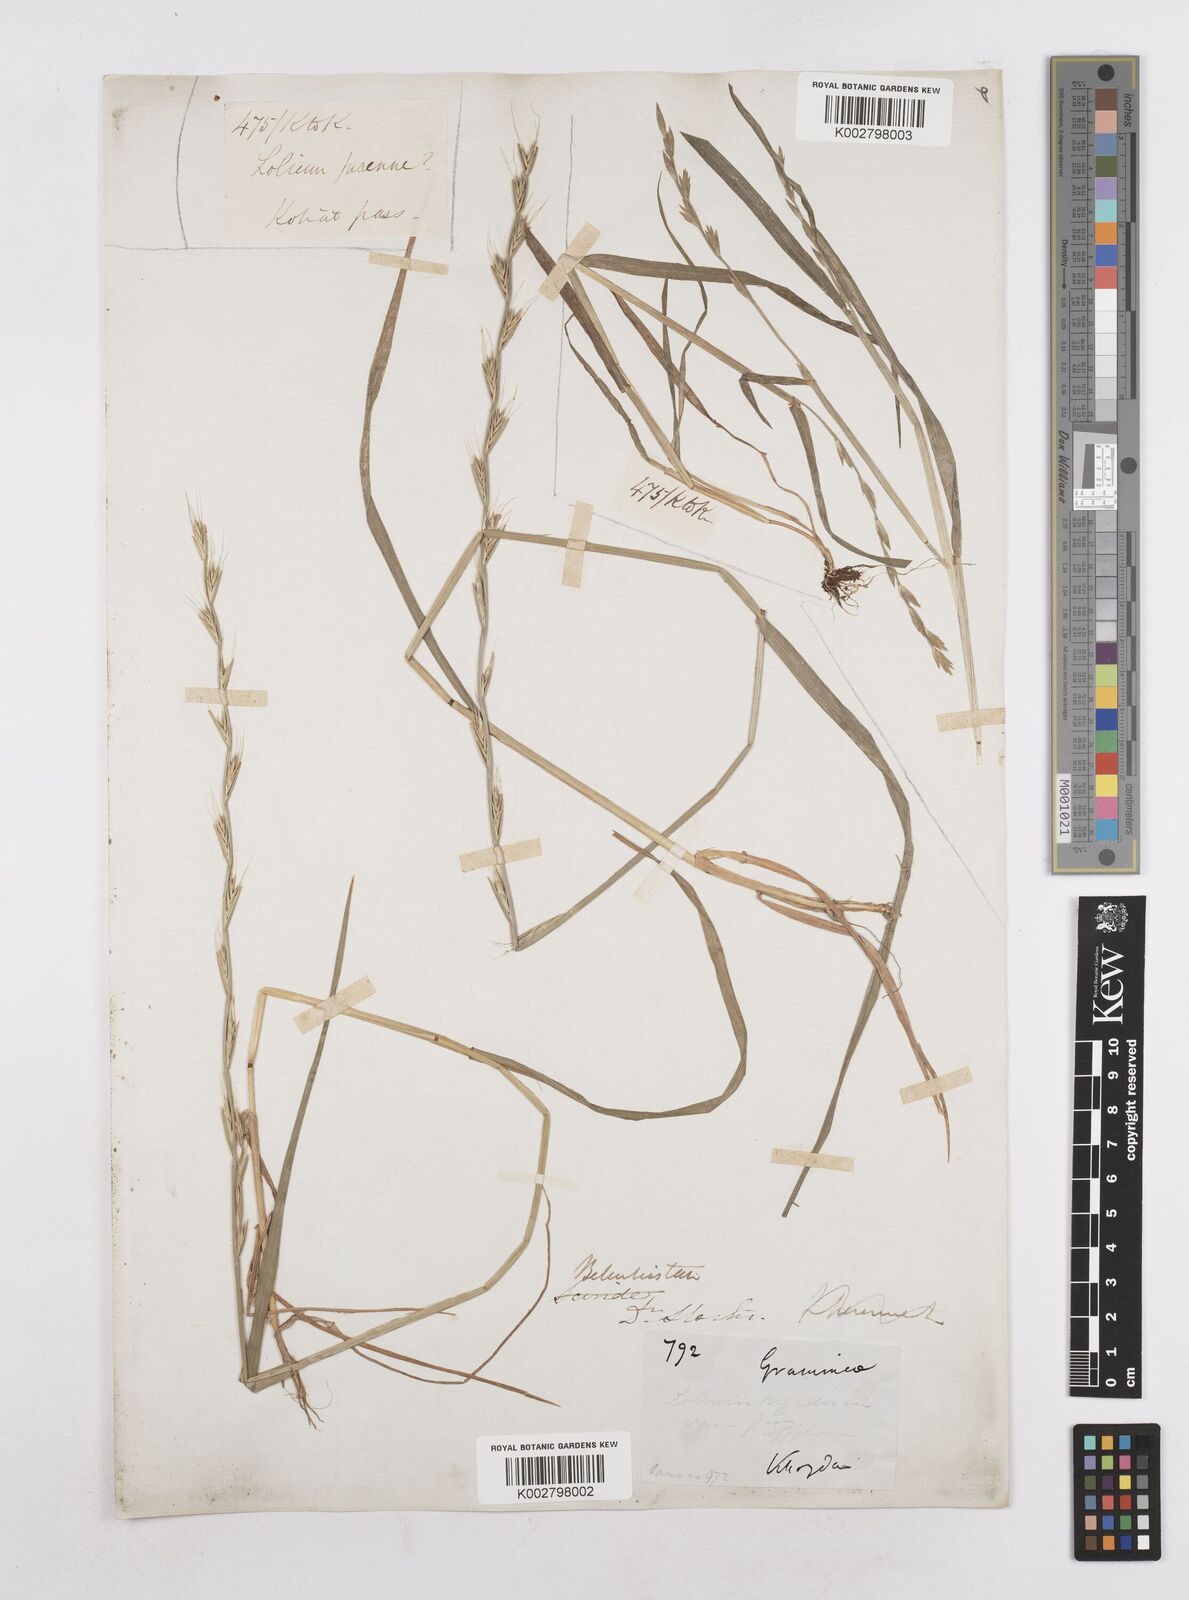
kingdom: Plantae
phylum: Tracheophyta
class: Liliopsida
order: Poales
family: Poaceae
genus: Lolium
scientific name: Lolium persicum
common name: Persian ryegrass
